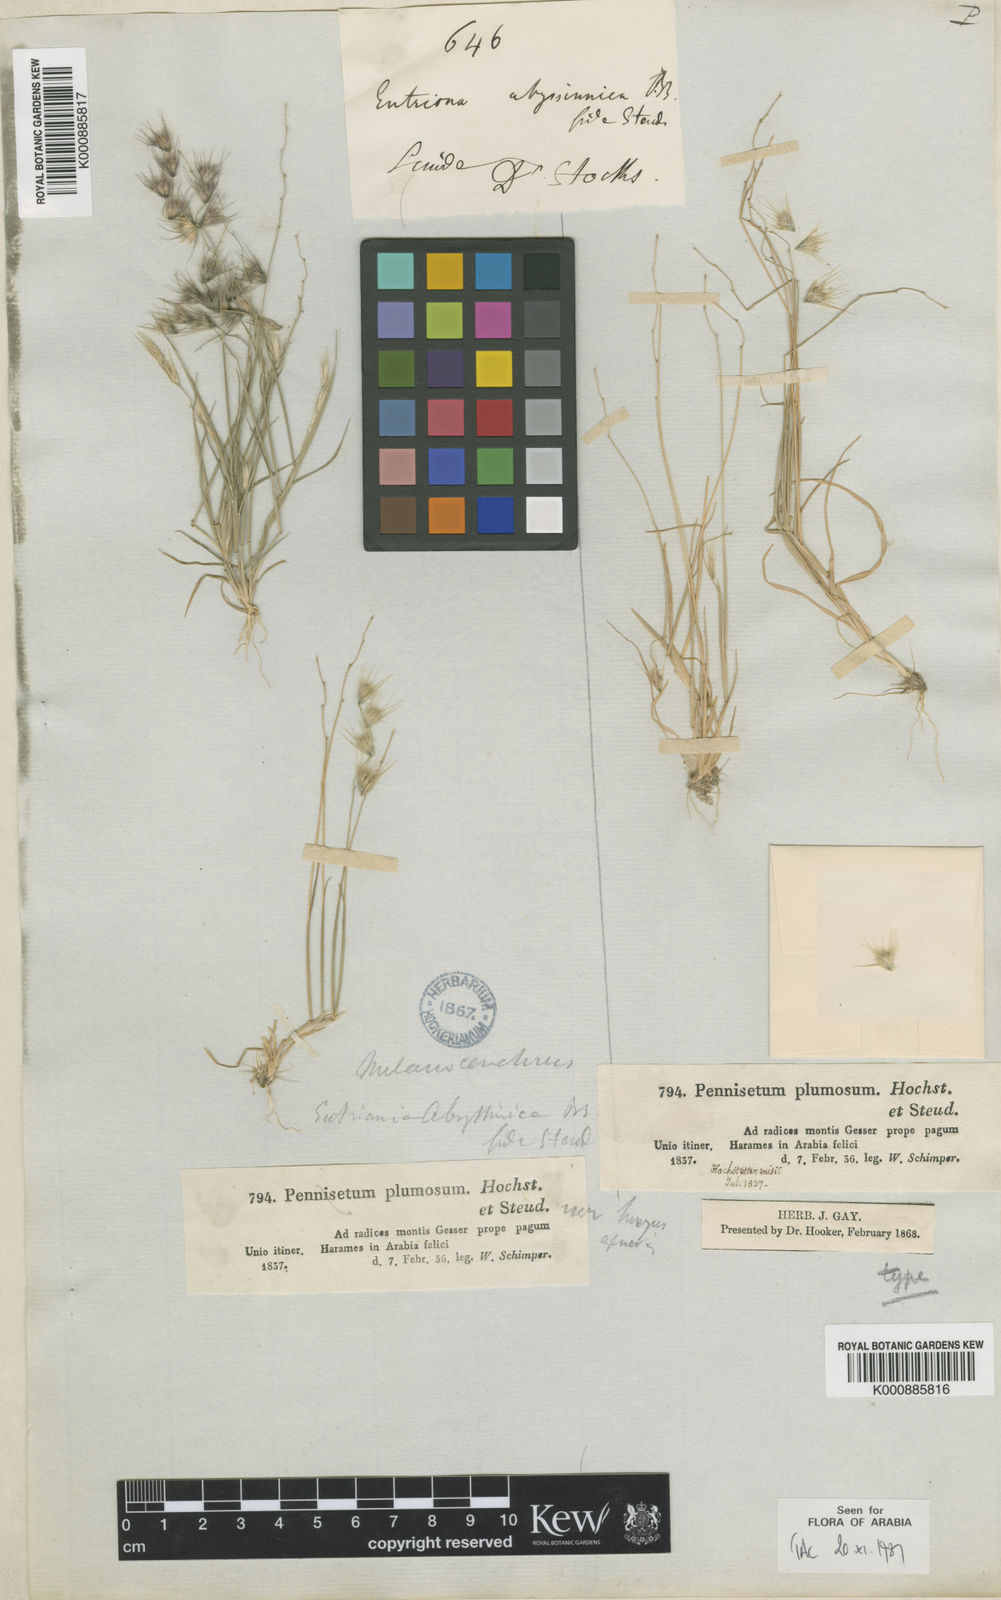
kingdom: Plantae
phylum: Tracheophyta
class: Liliopsida
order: Poales
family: Poaceae
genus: Melanocenchris
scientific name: Melanocenchris abyssinica
